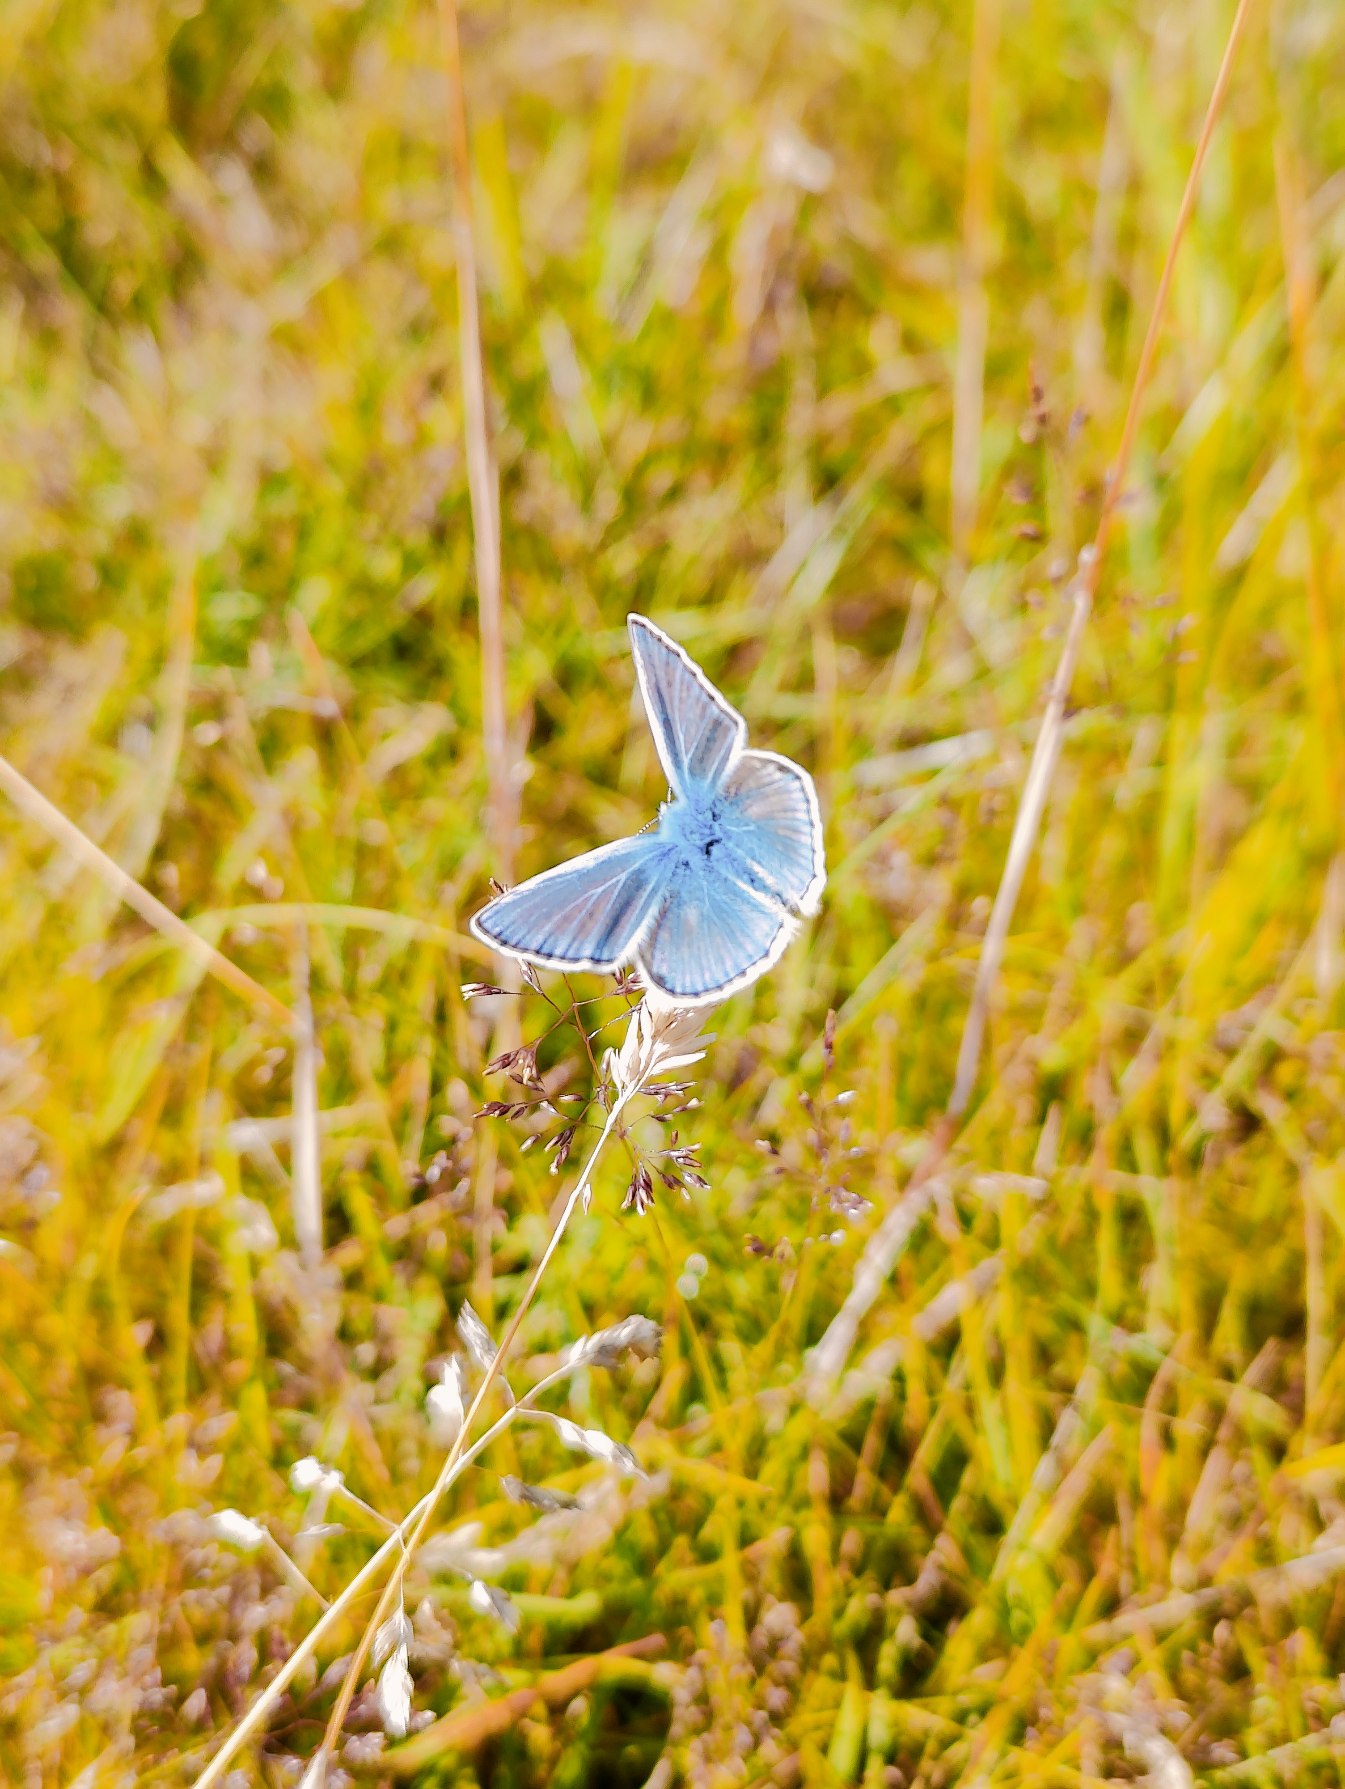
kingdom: Animalia
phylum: Arthropoda
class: Insecta
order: Lepidoptera
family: Lycaenidae
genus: Polyommatus
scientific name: Polyommatus icarus
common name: Almindelig blåfugl
